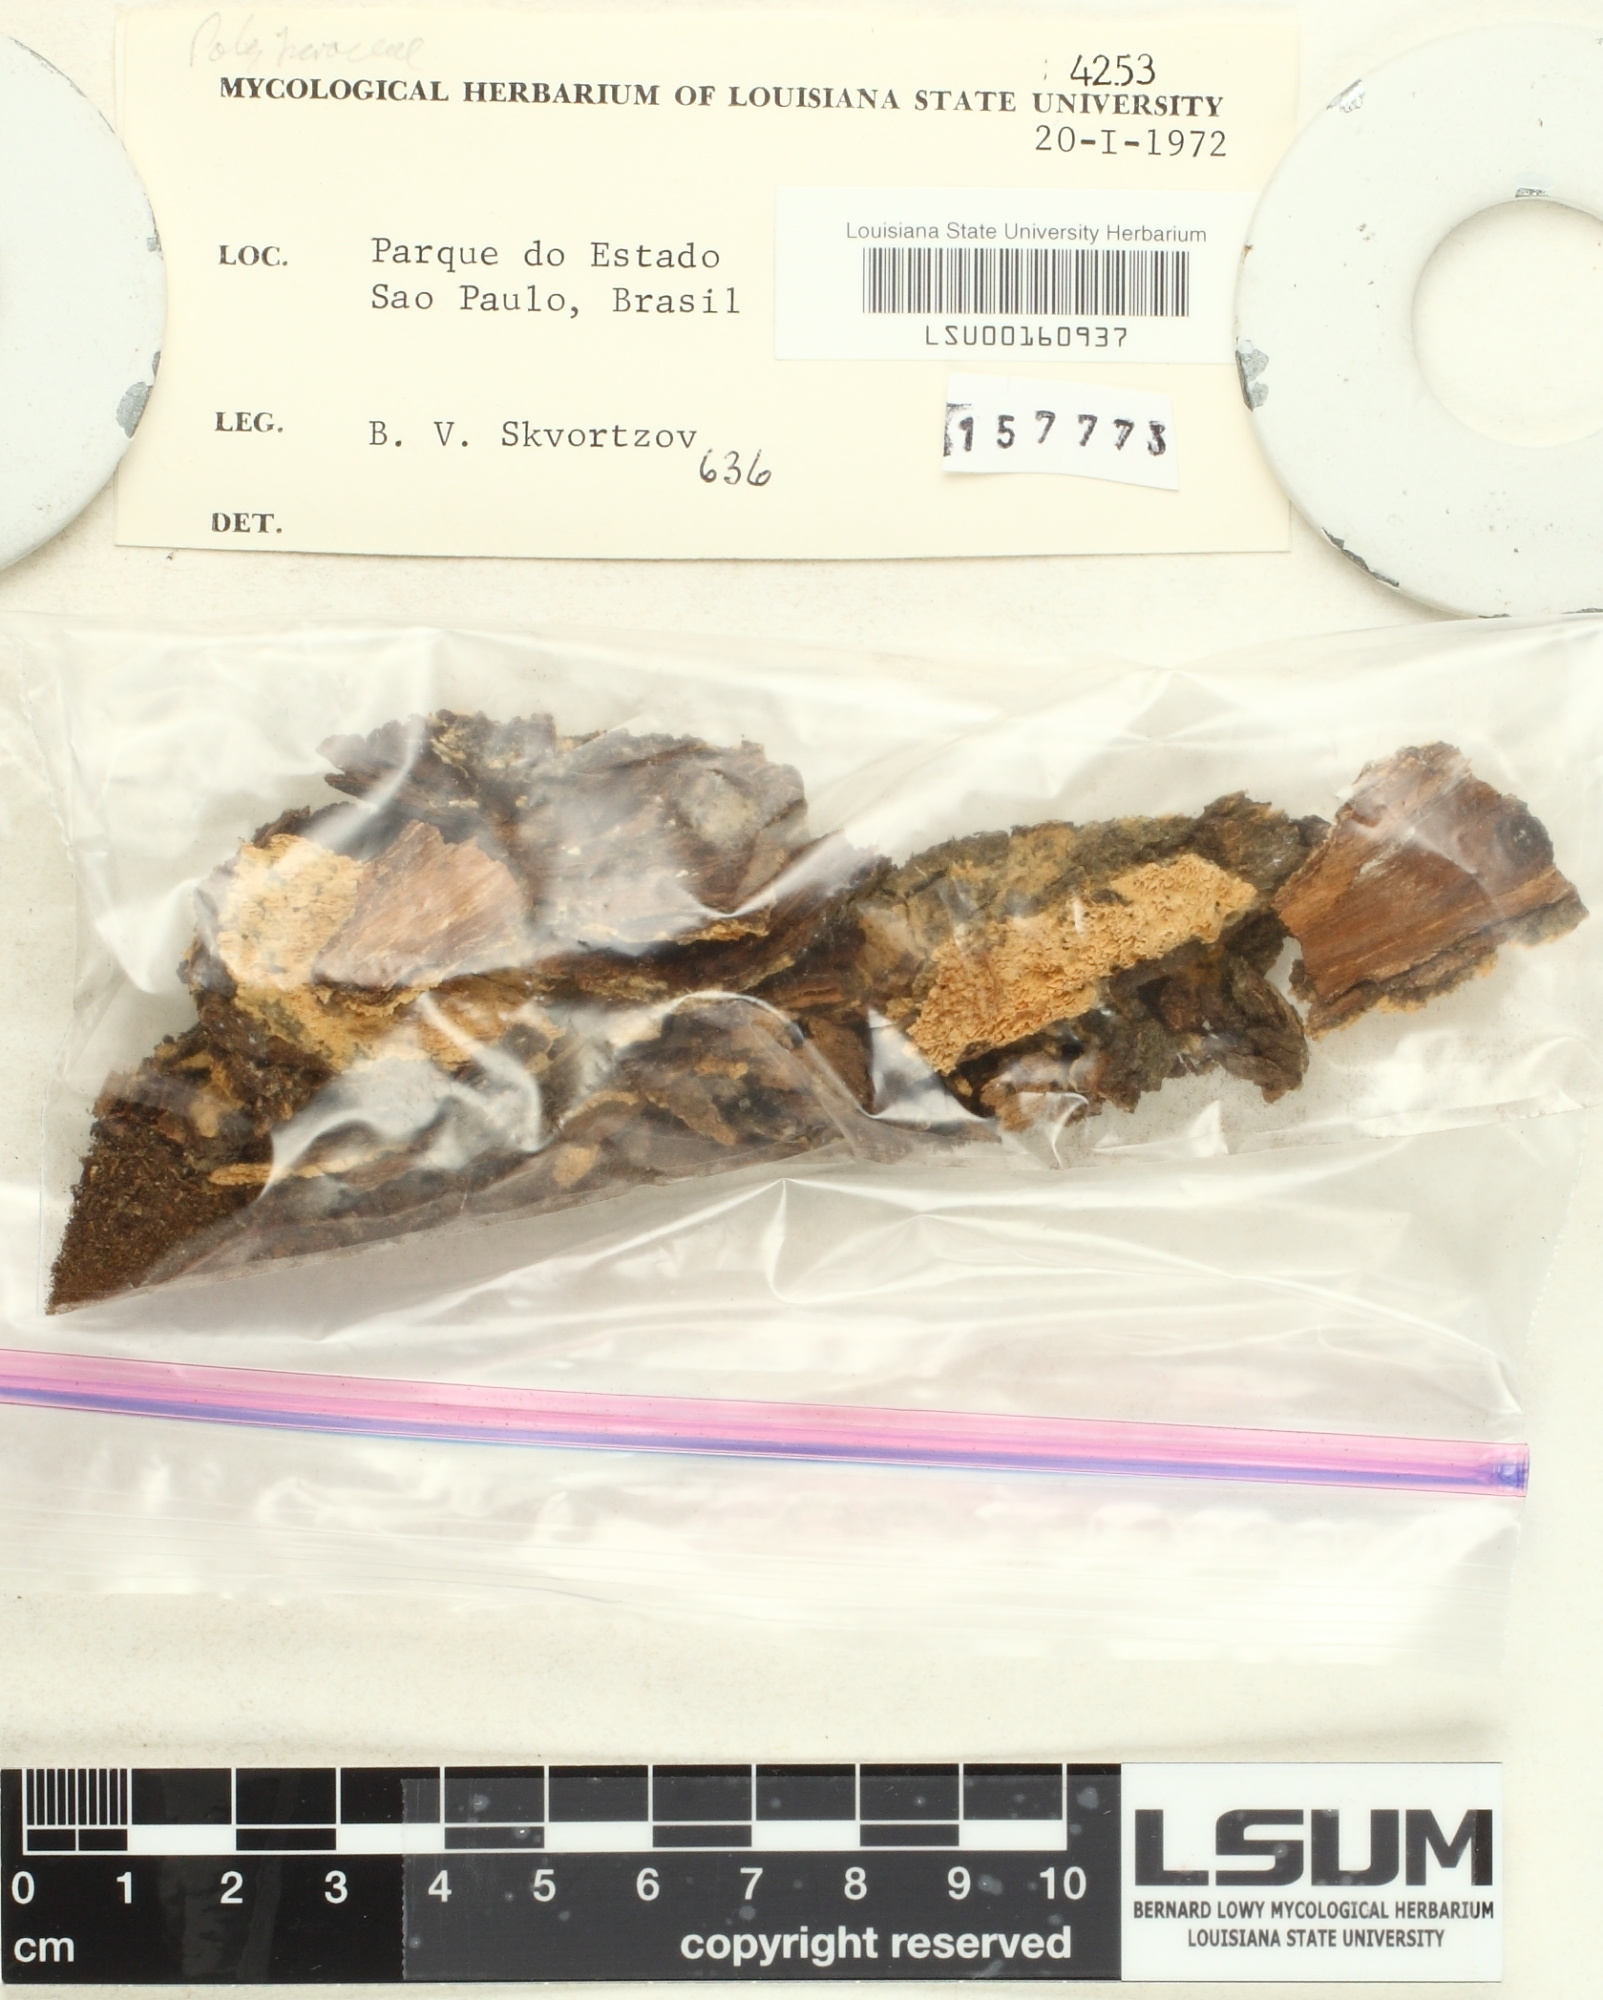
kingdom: Fungi
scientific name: Fungi
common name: Fungi
